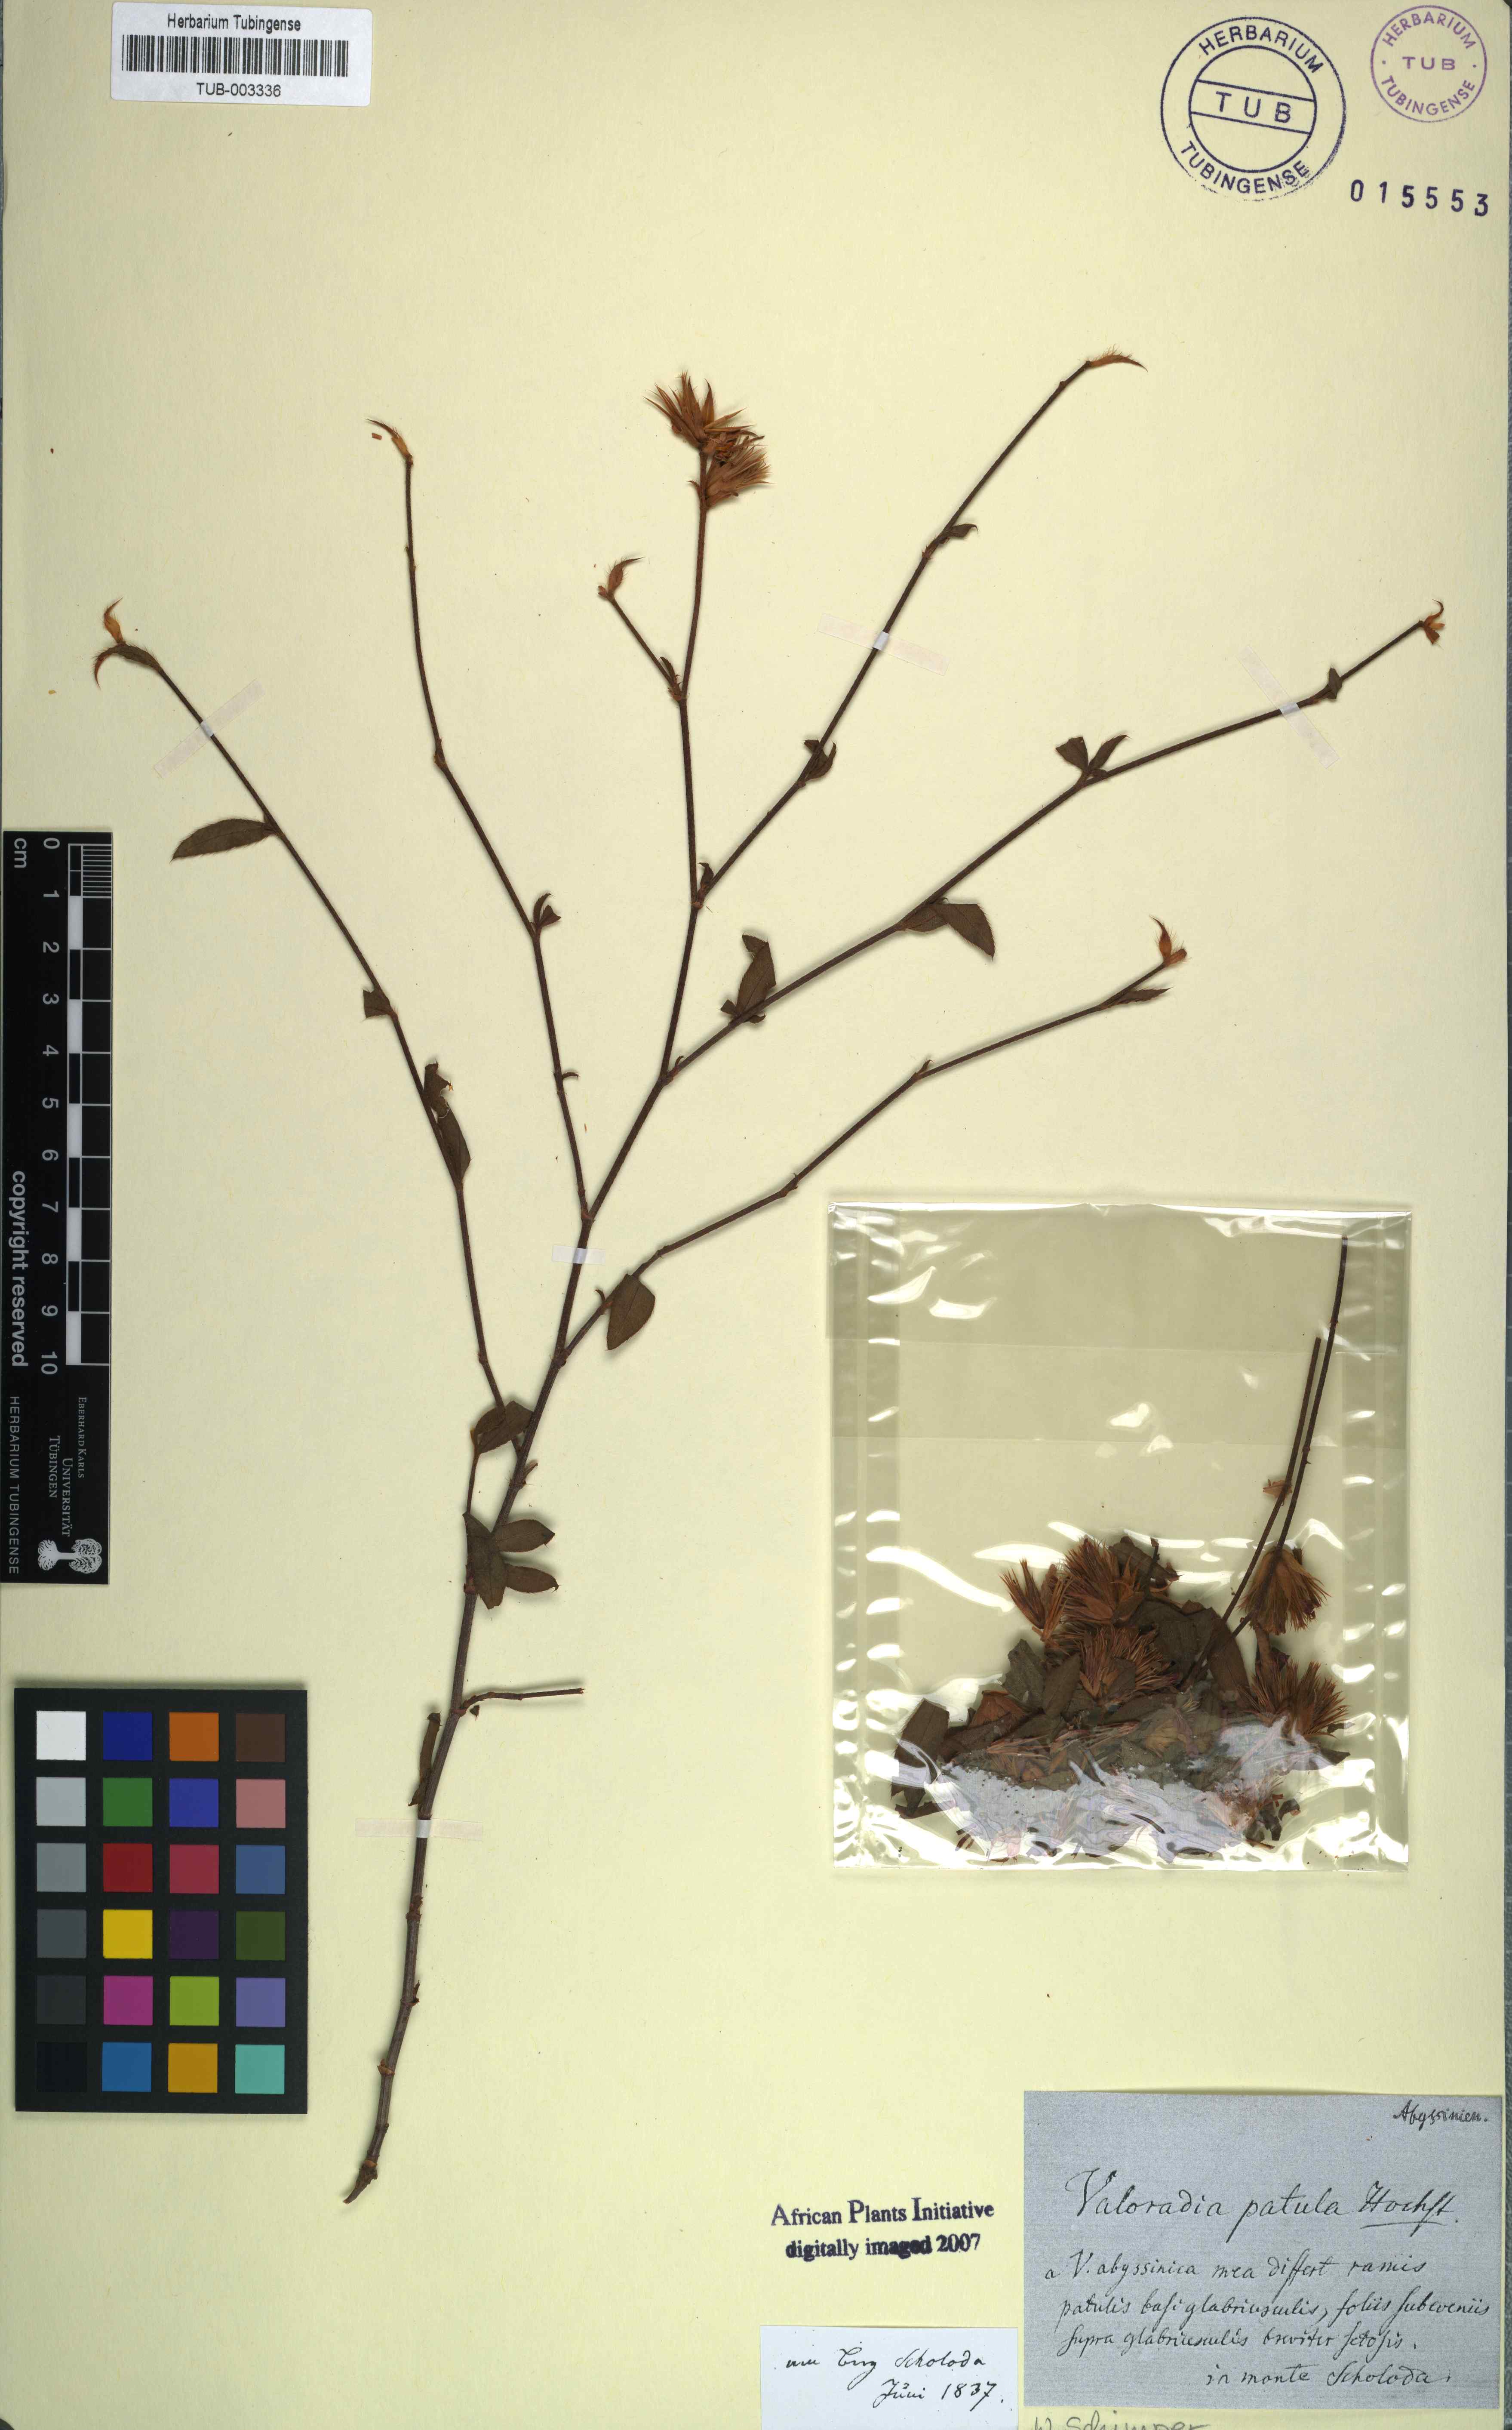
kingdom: Plantae
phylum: Tracheophyta
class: Magnoliopsida
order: Caryophyllales
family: Plumbaginaceae
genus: Ceratostigma
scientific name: Ceratostigma Valoradia patula
